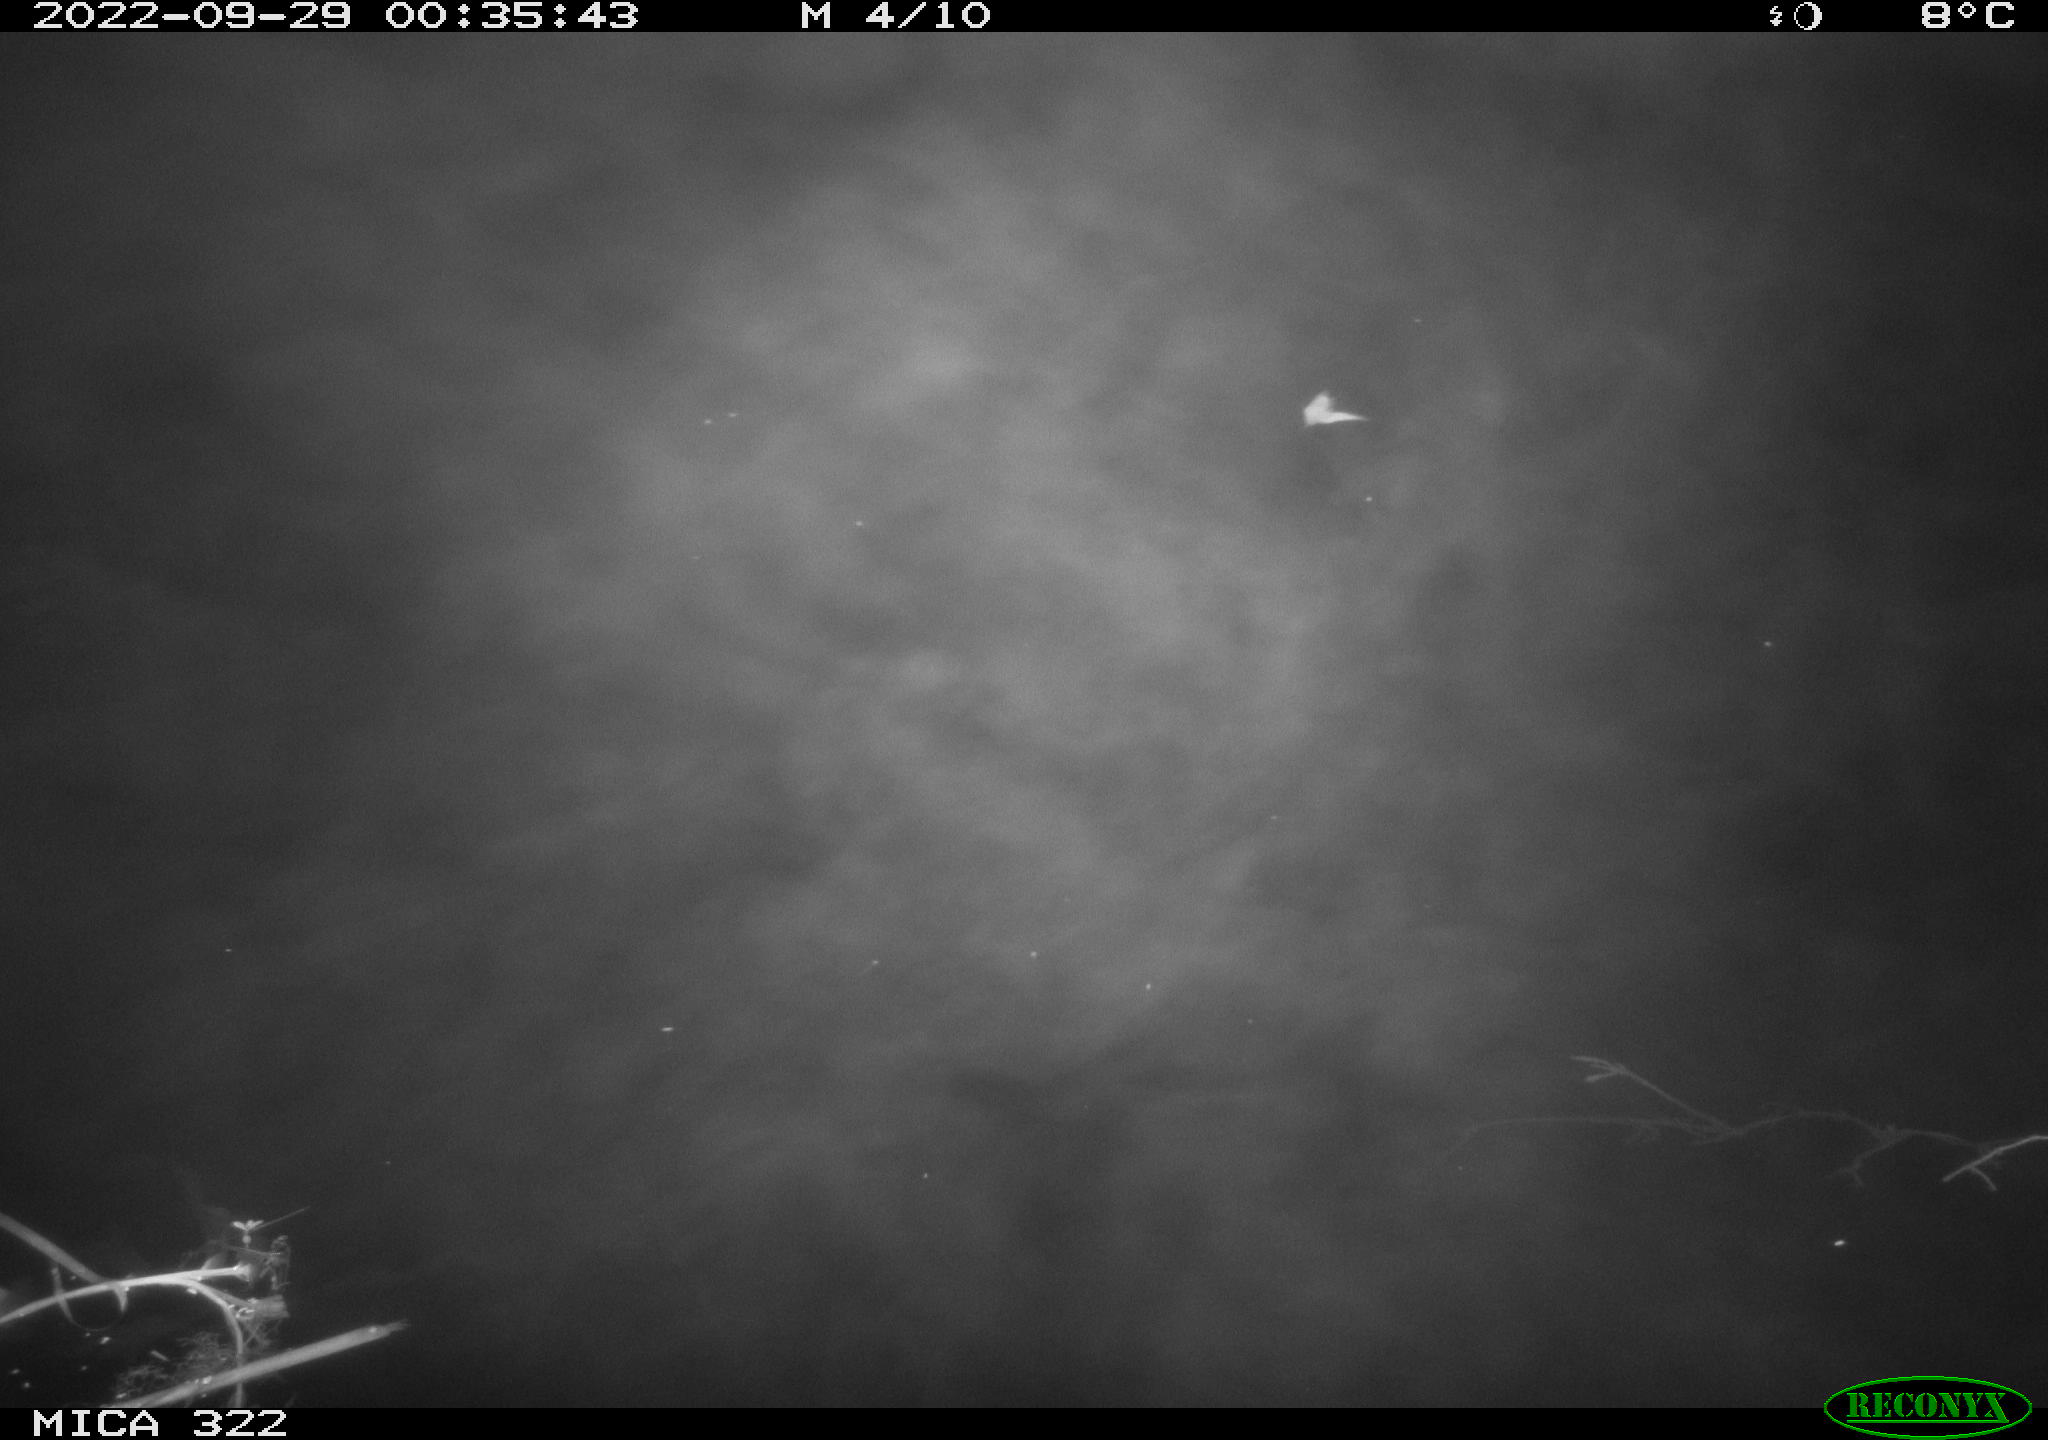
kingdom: Animalia
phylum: Chordata
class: Mammalia
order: Rodentia
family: Cricetidae
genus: Ondatra
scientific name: Ondatra zibethicus
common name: Muskrat
